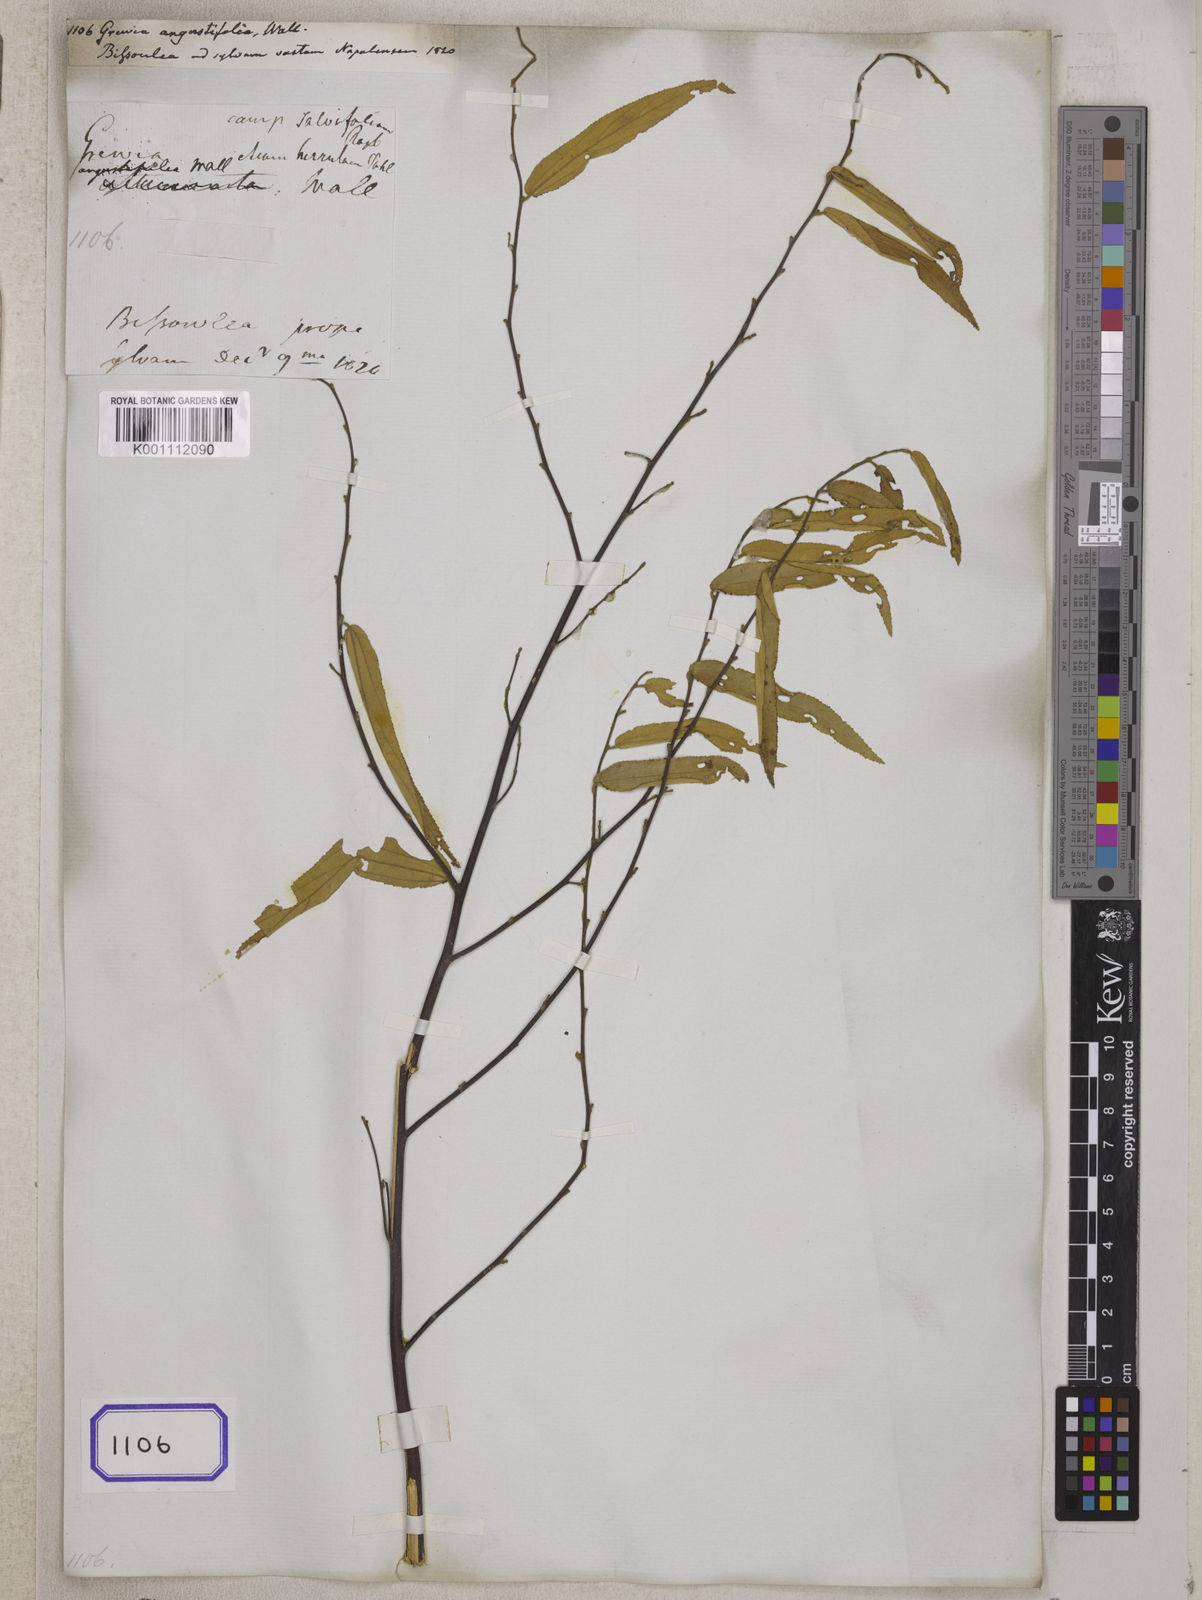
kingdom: Plantae
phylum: Tracheophyta
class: Magnoliopsida
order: Malvales
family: Malvaceae
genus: Grewia
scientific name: Grewia helicterifolia
